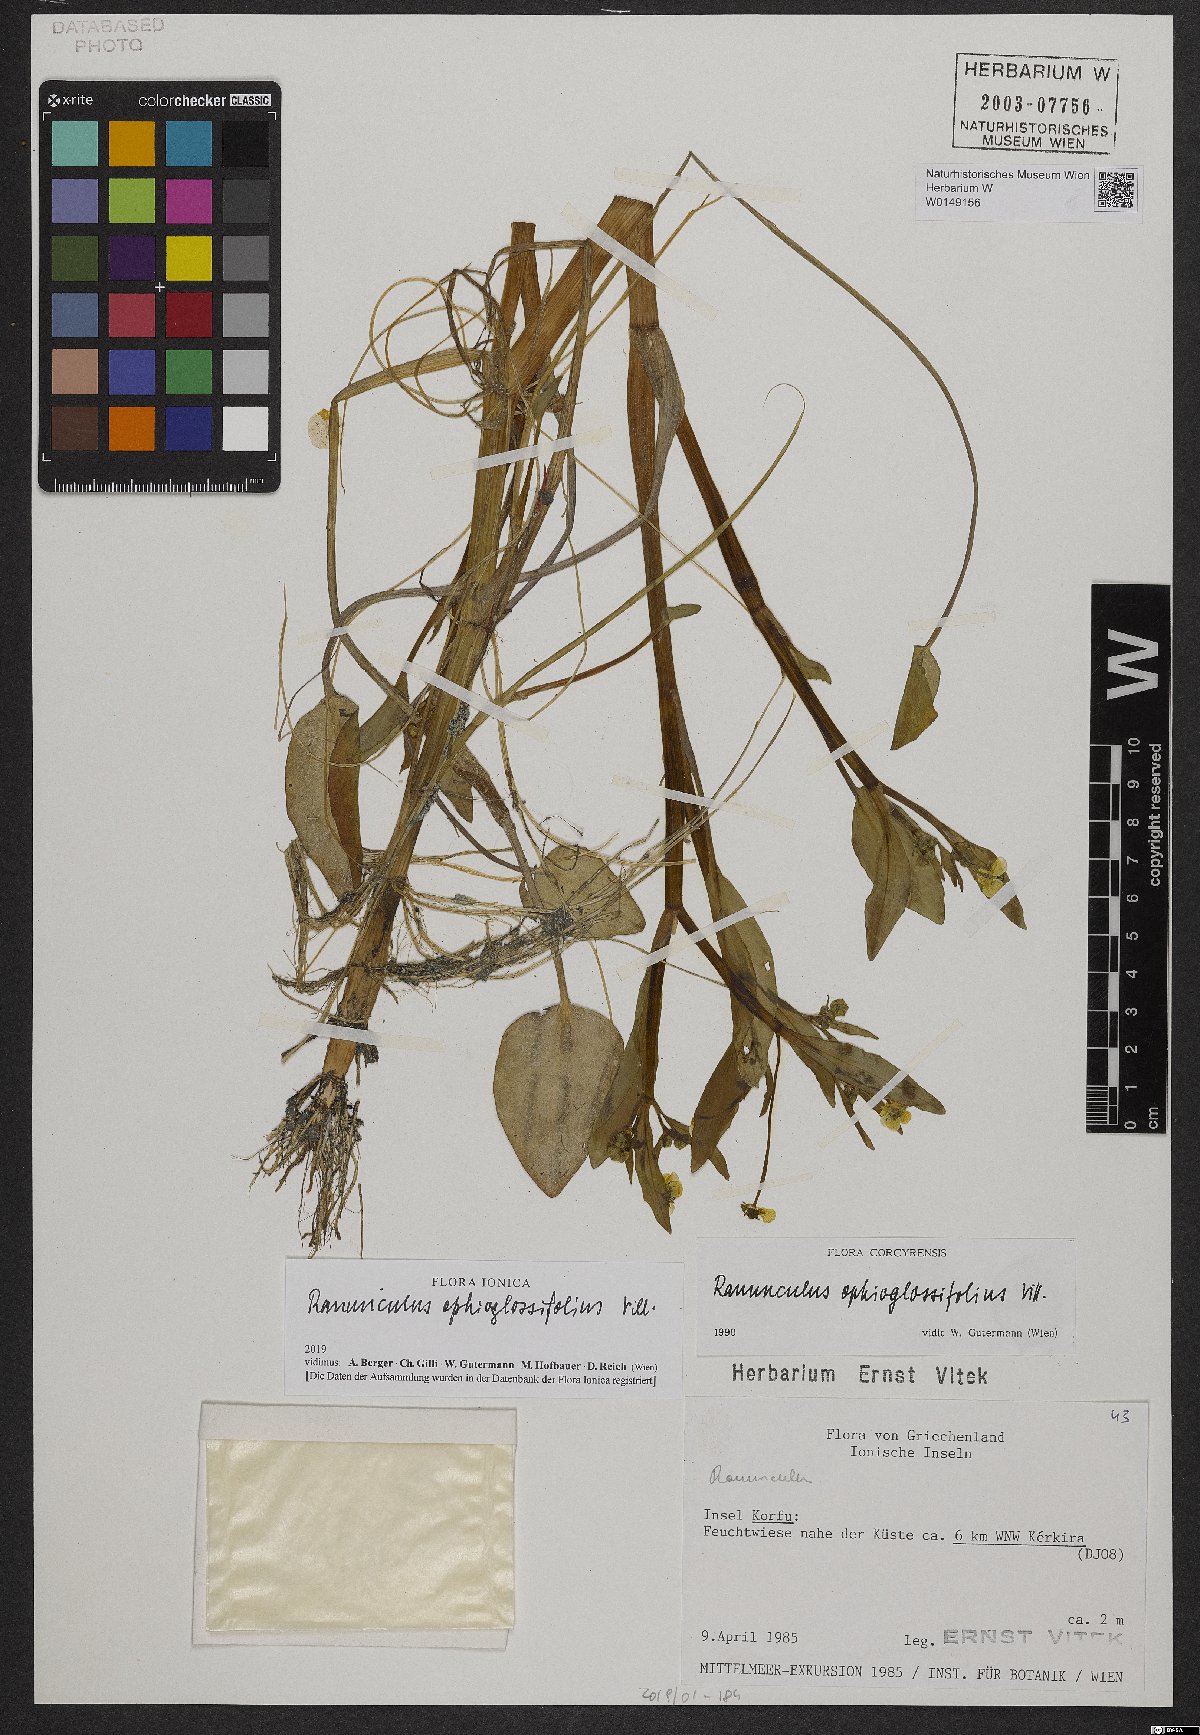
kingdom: Plantae
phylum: Tracheophyta
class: Magnoliopsida
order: Ranunculales
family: Ranunculaceae
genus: Ranunculus
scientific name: Ranunculus ophioglossifolius
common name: Adder's-tongue spearwort
